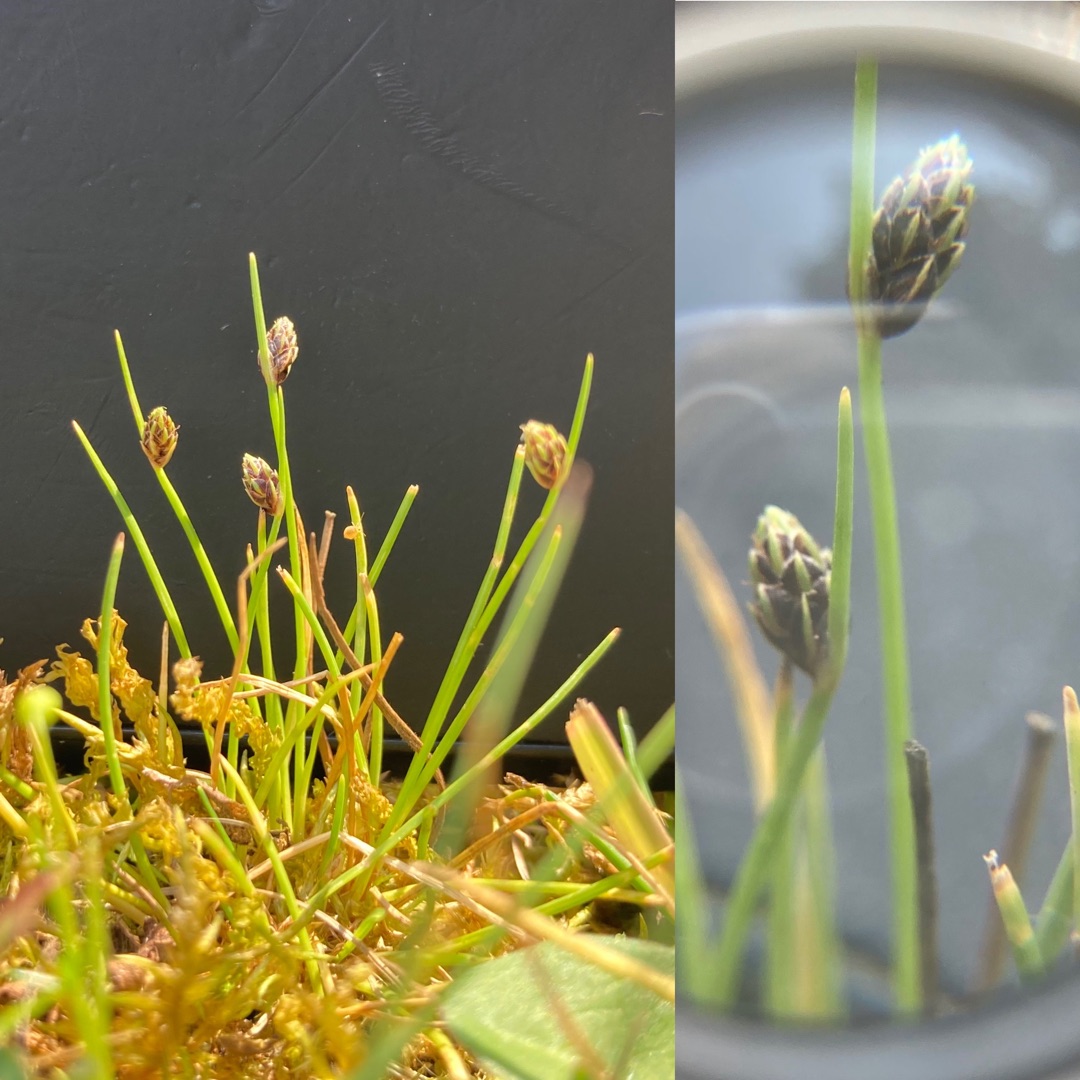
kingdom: Plantae
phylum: Tracheophyta
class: Liliopsida
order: Poales
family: Cyperaceae
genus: Isolepis
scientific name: Isolepis setacea
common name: Børste-kogleaks
